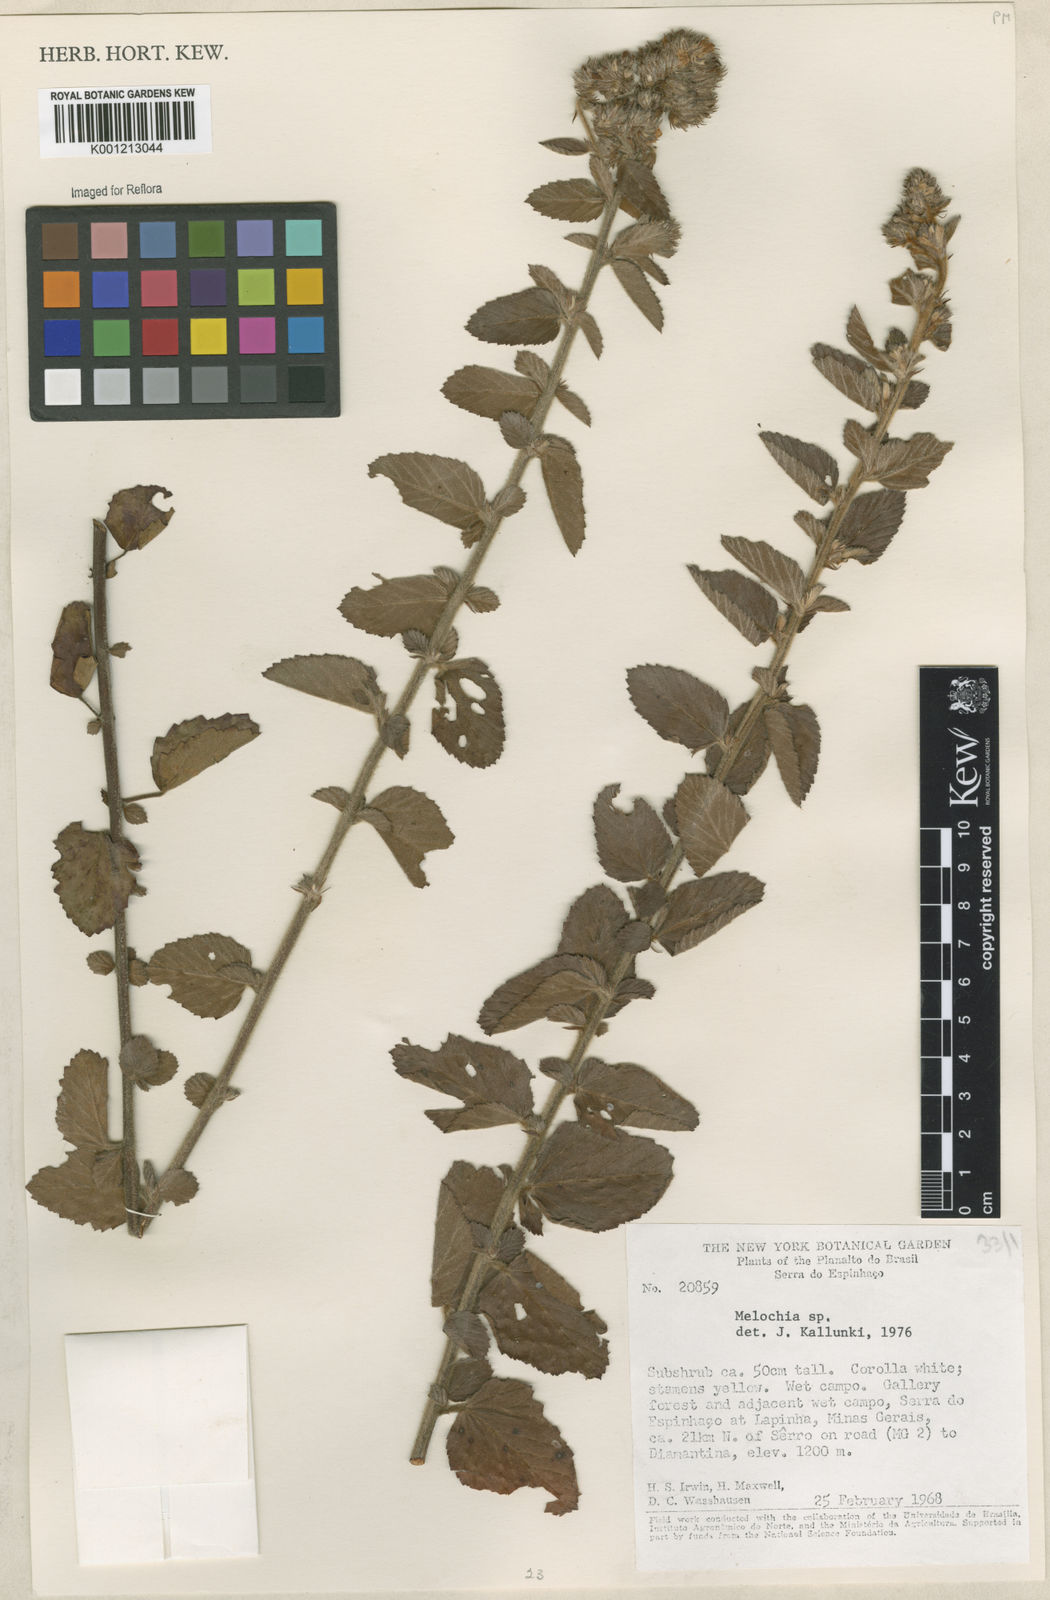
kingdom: Plantae
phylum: Tracheophyta
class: Magnoliopsida
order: Malvales
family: Malvaceae
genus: Melochia
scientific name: Melochia
